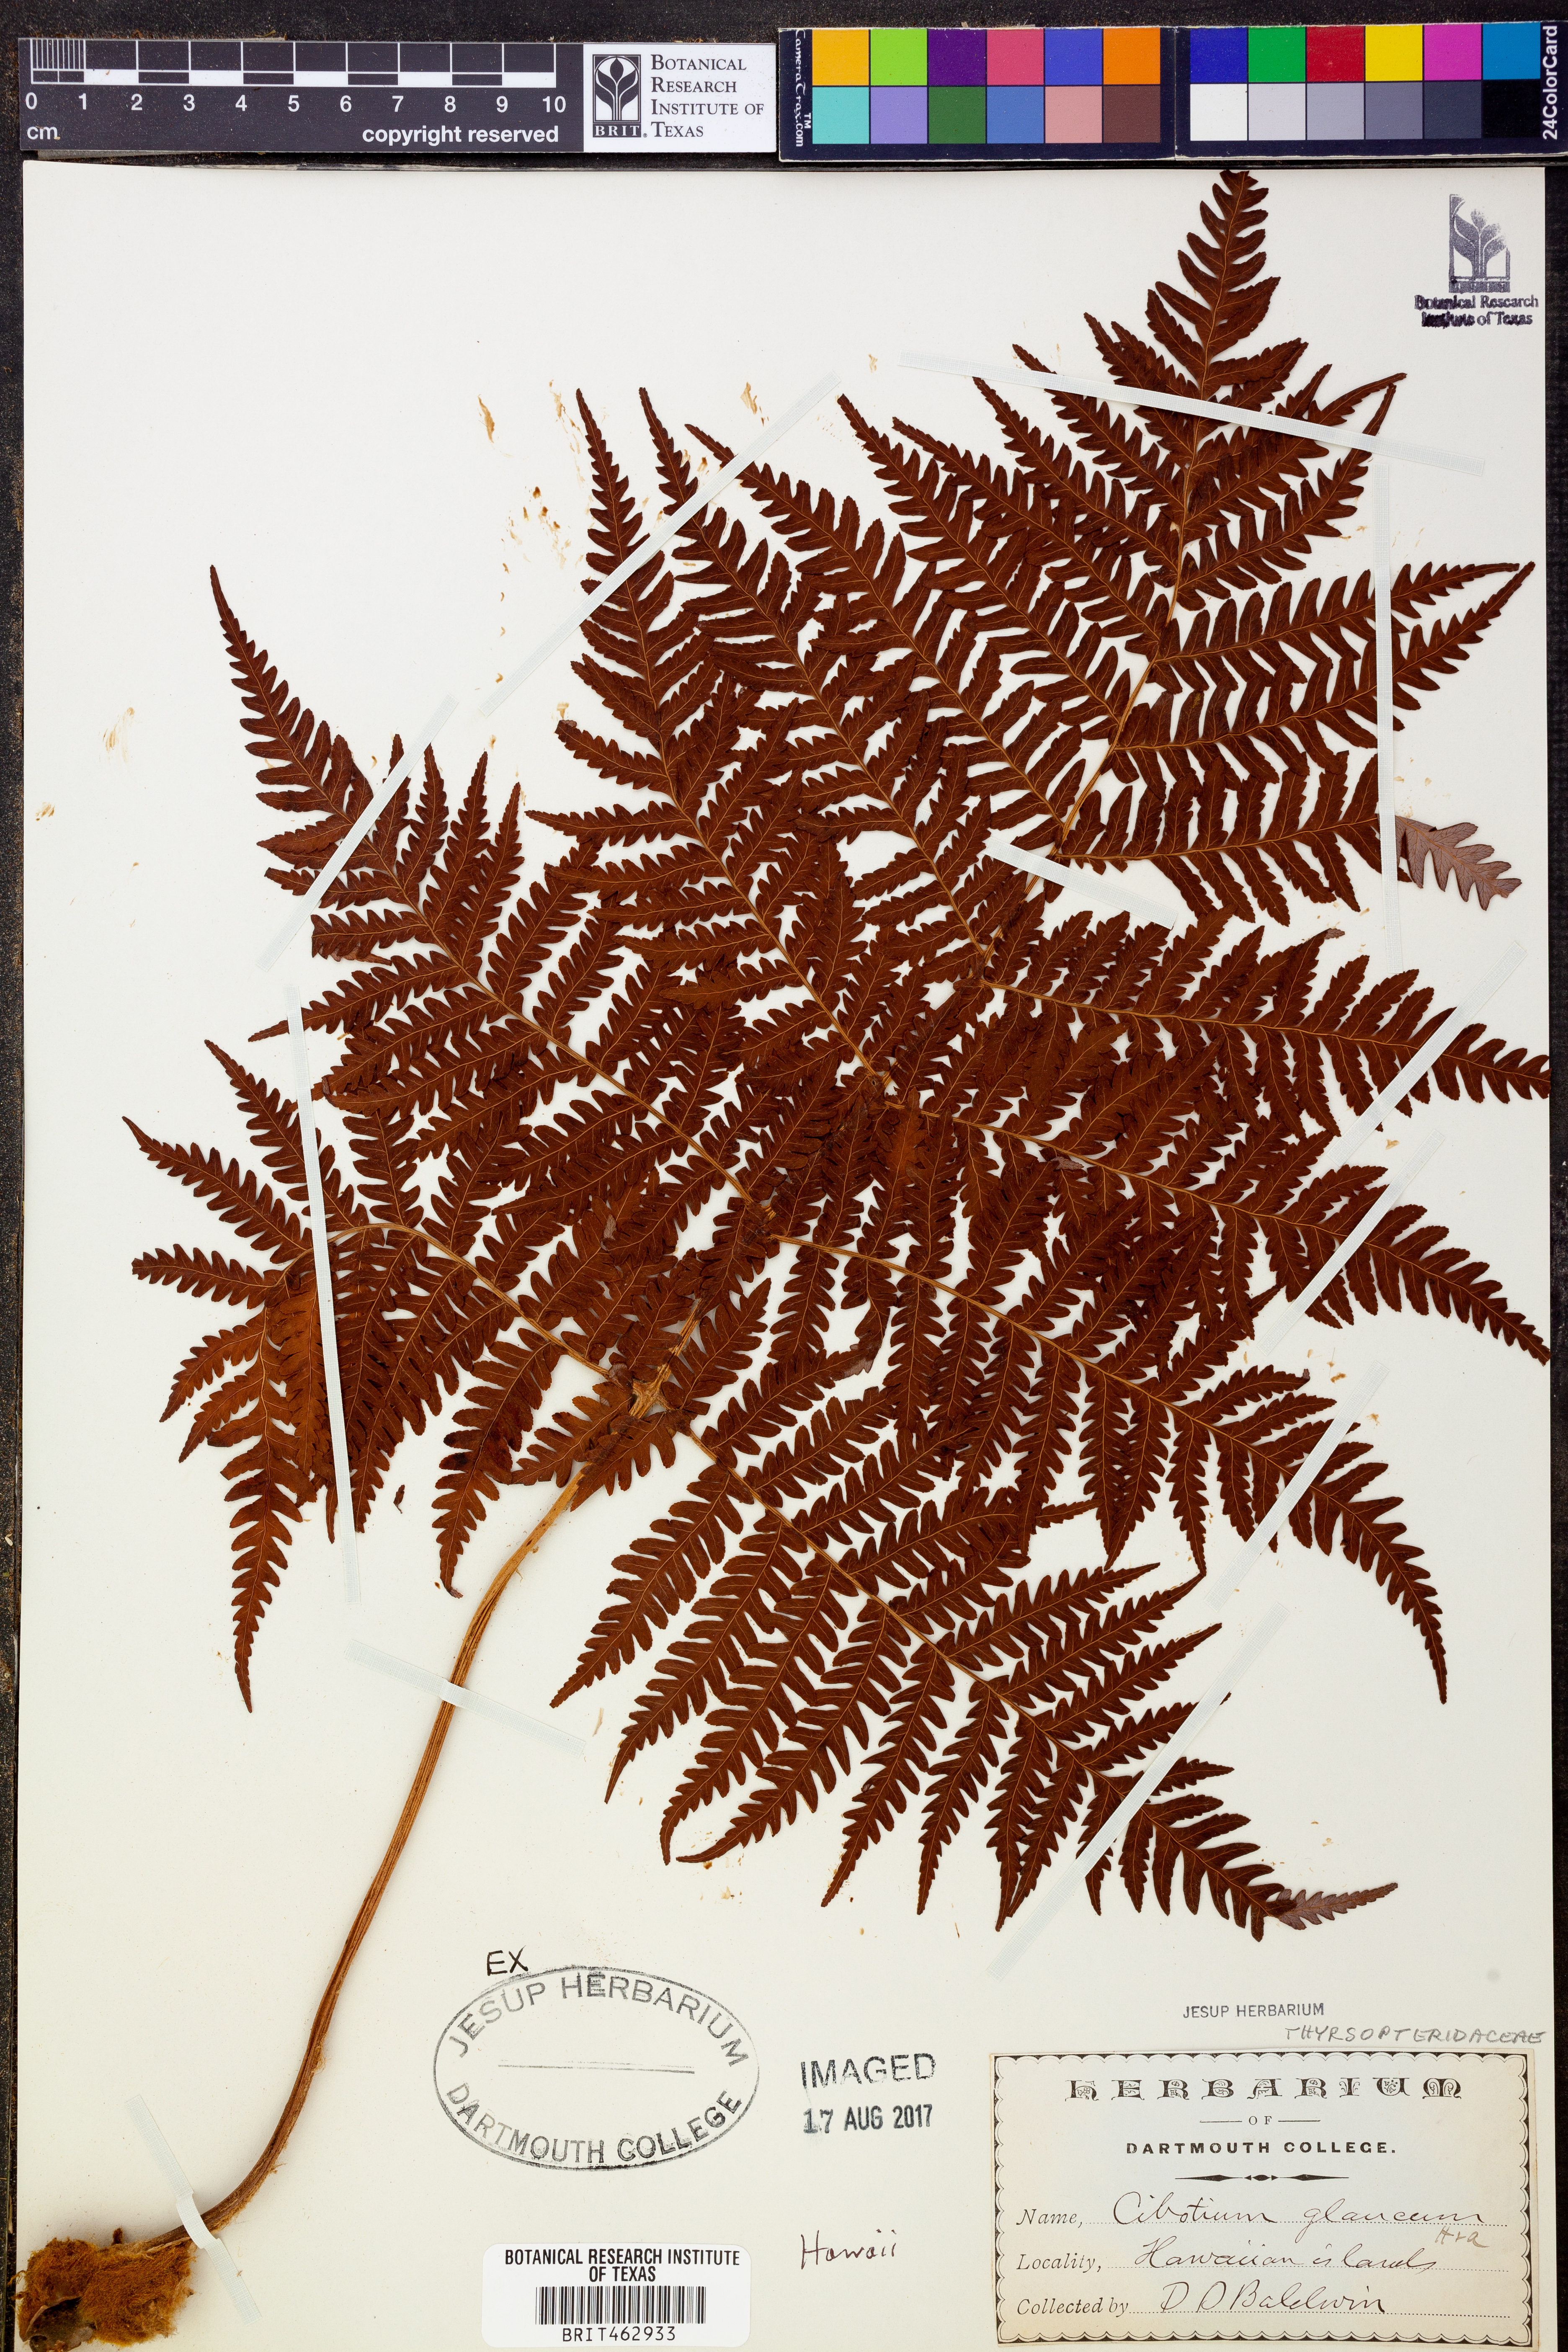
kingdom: Plantae
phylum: Tracheophyta
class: Polypodiopsida
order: Cyatheales
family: Cibotiaceae
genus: Cibotium
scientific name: Cibotium glaucum
